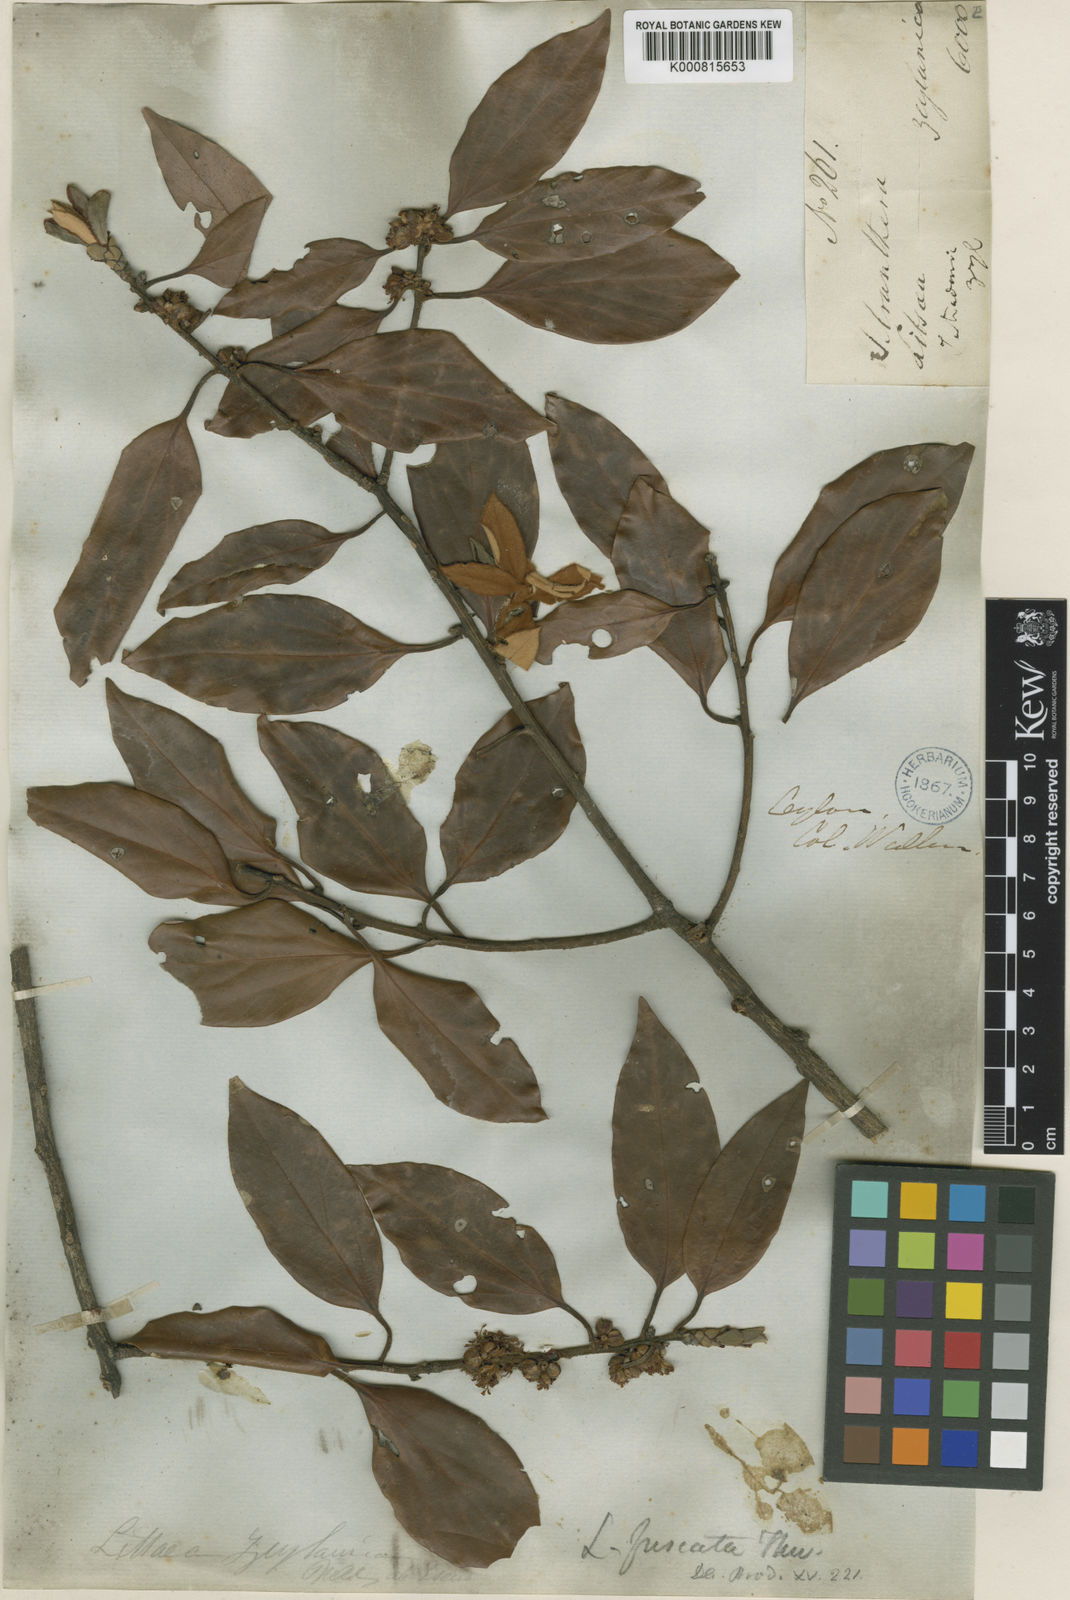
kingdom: Plantae
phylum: Tracheophyta
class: Magnoliopsida
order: Laurales
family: Lauraceae
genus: Neolitsea
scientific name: Neolitsea fuscata
